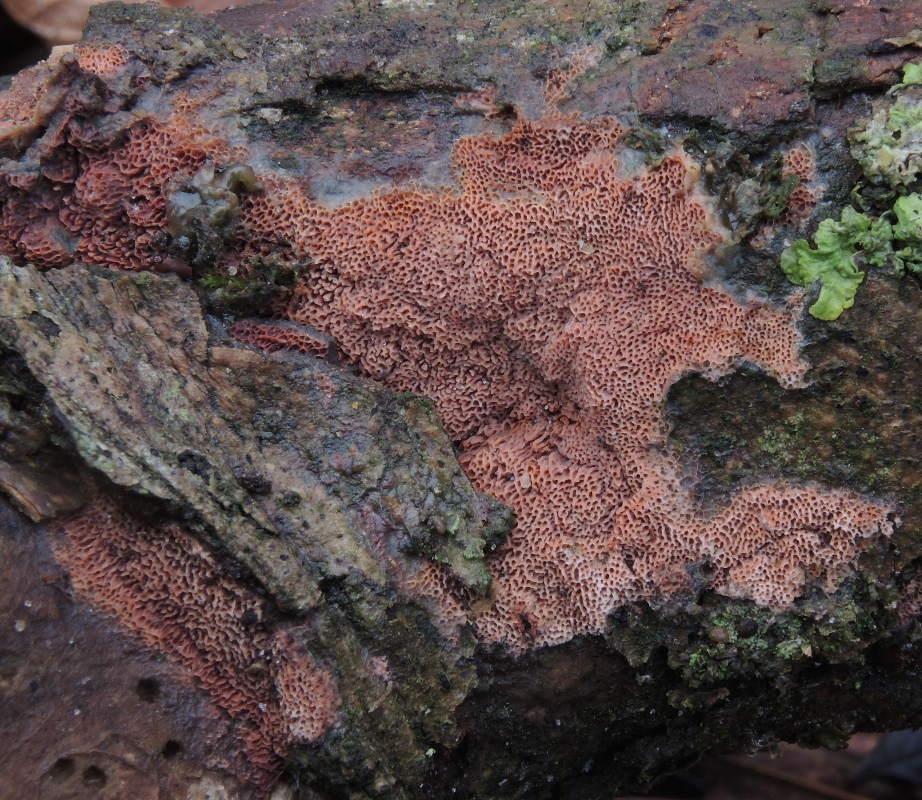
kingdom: Fungi
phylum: Basidiomycota
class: Agaricomycetes
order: Polyporales
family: Irpicaceae
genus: Ceriporia
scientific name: Ceriporia purpurea
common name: purpur-voksporesvamp
